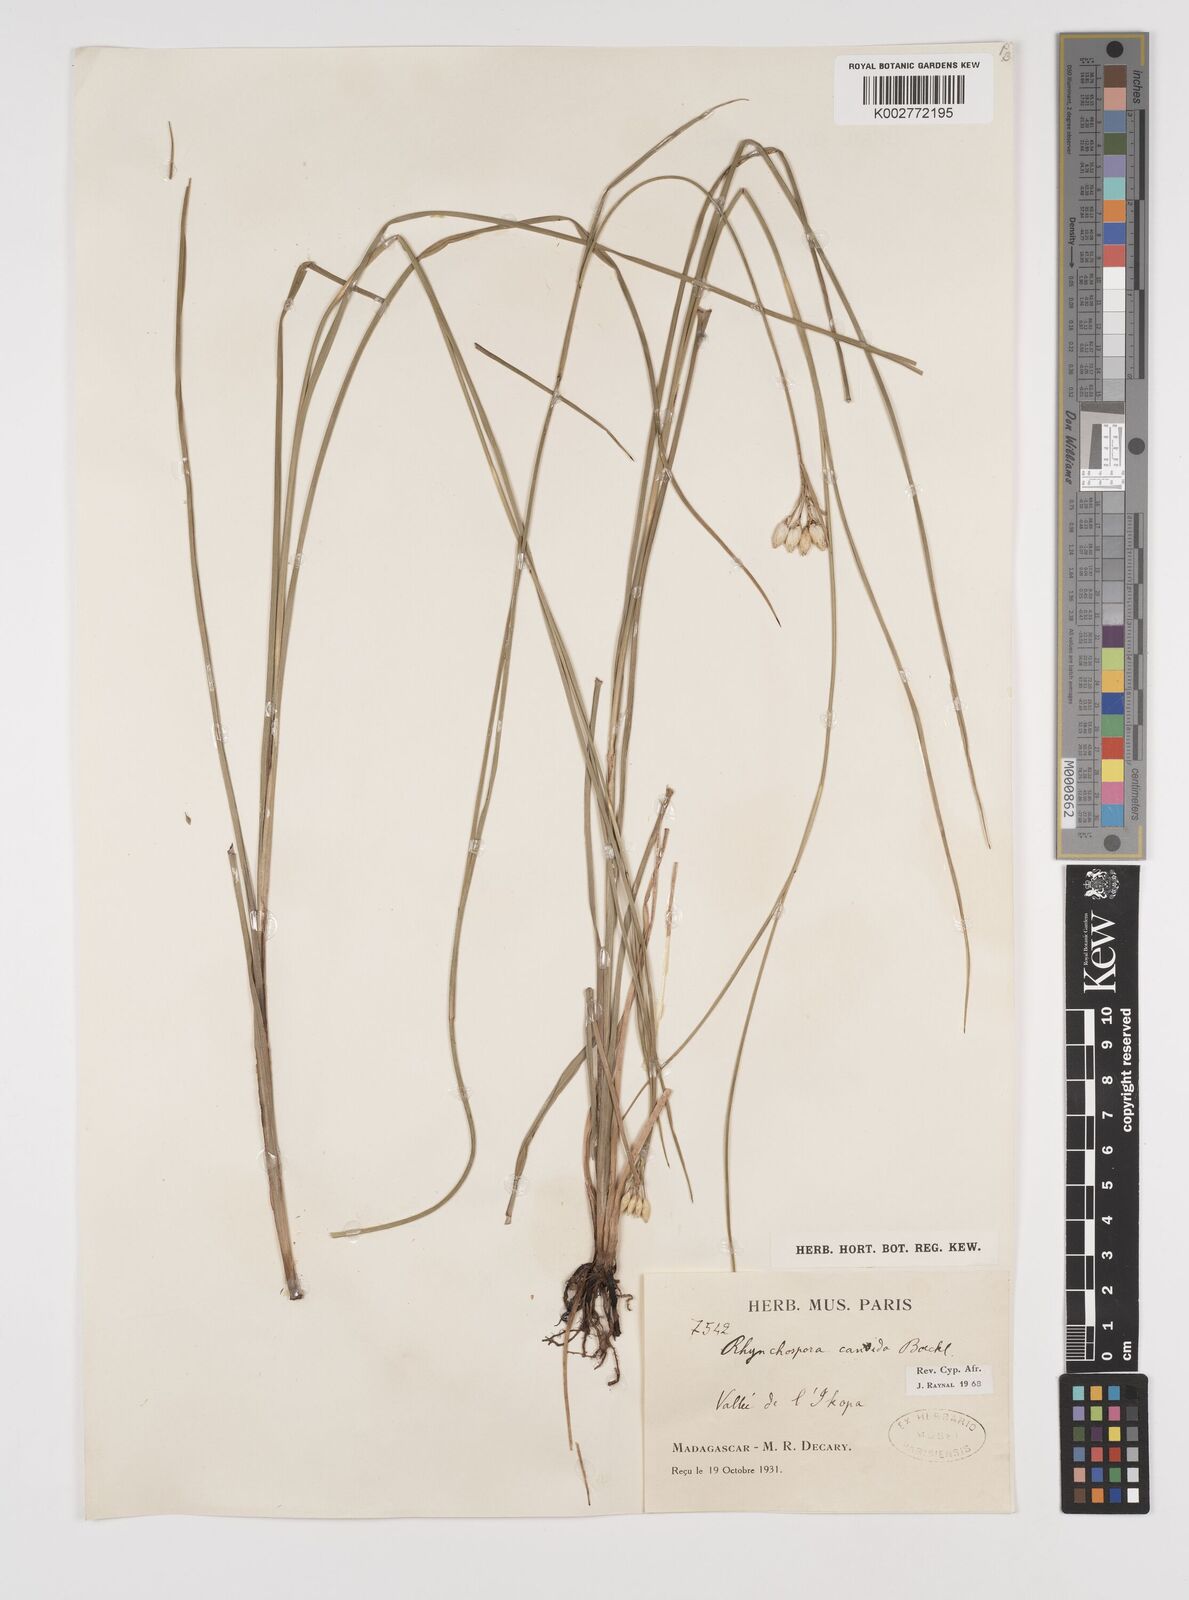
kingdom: Plantae
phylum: Tracheophyta
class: Liliopsida
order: Poales
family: Cyperaceae
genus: Rhynchospora
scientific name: Rhynchospora candida
